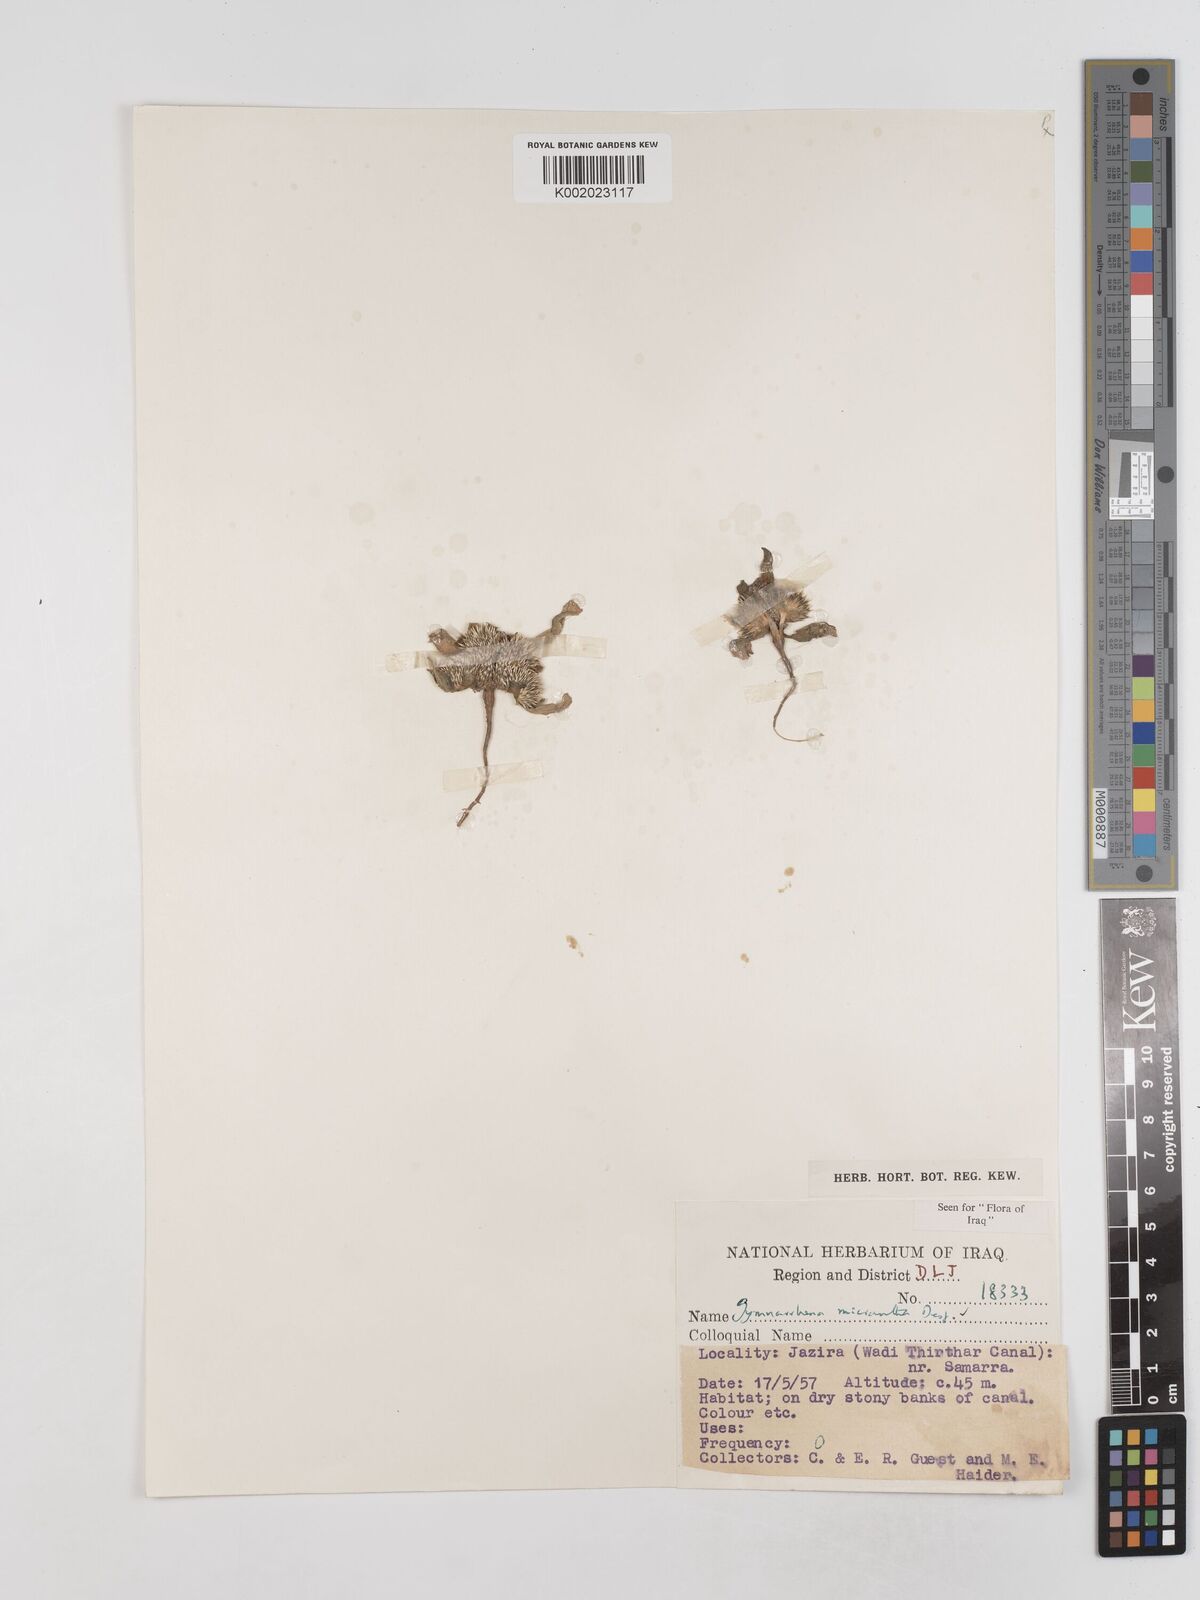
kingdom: Plantae
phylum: Tracheophyta
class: Magnoliopsida
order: Asterales
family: Asteraceae
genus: Gymnarrhena
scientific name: Gymnarrhena micrantha
